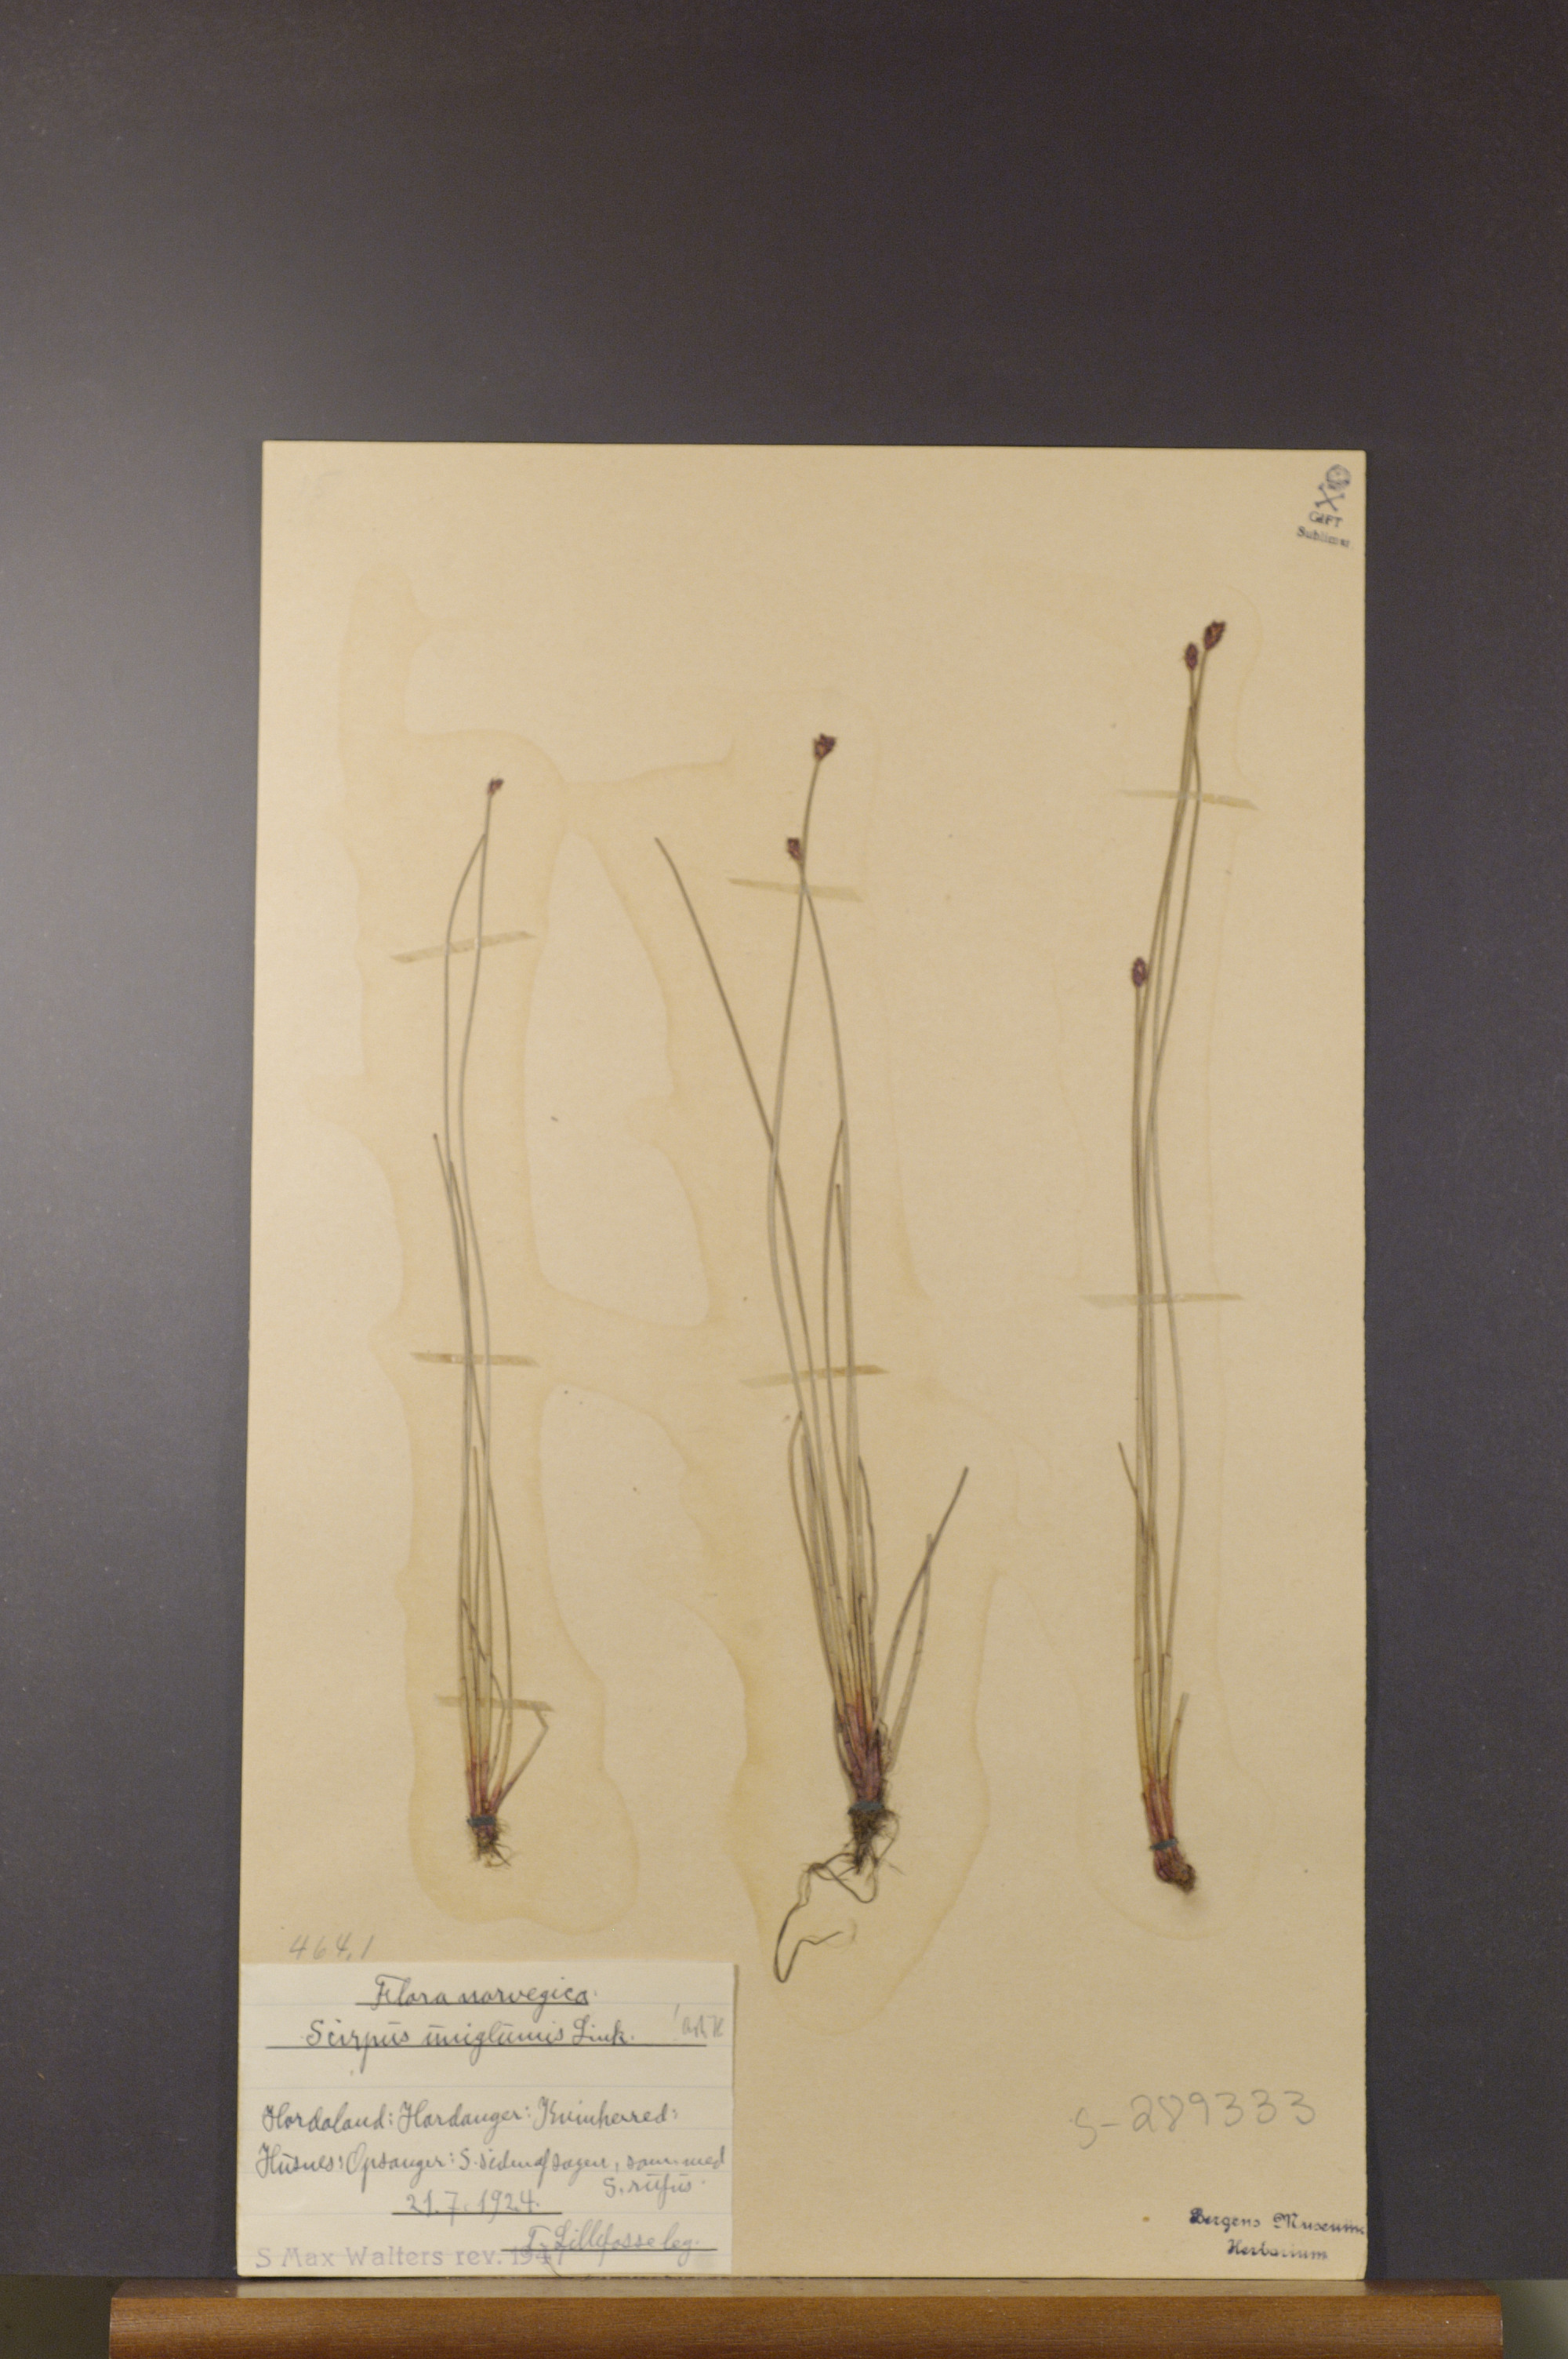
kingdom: Plantae
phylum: Tracheophyta
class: Liliopsida
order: Poales
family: Cyperaceae
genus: Eleocharis
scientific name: Eleocharis uniglumis
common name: Slender spike-rush
